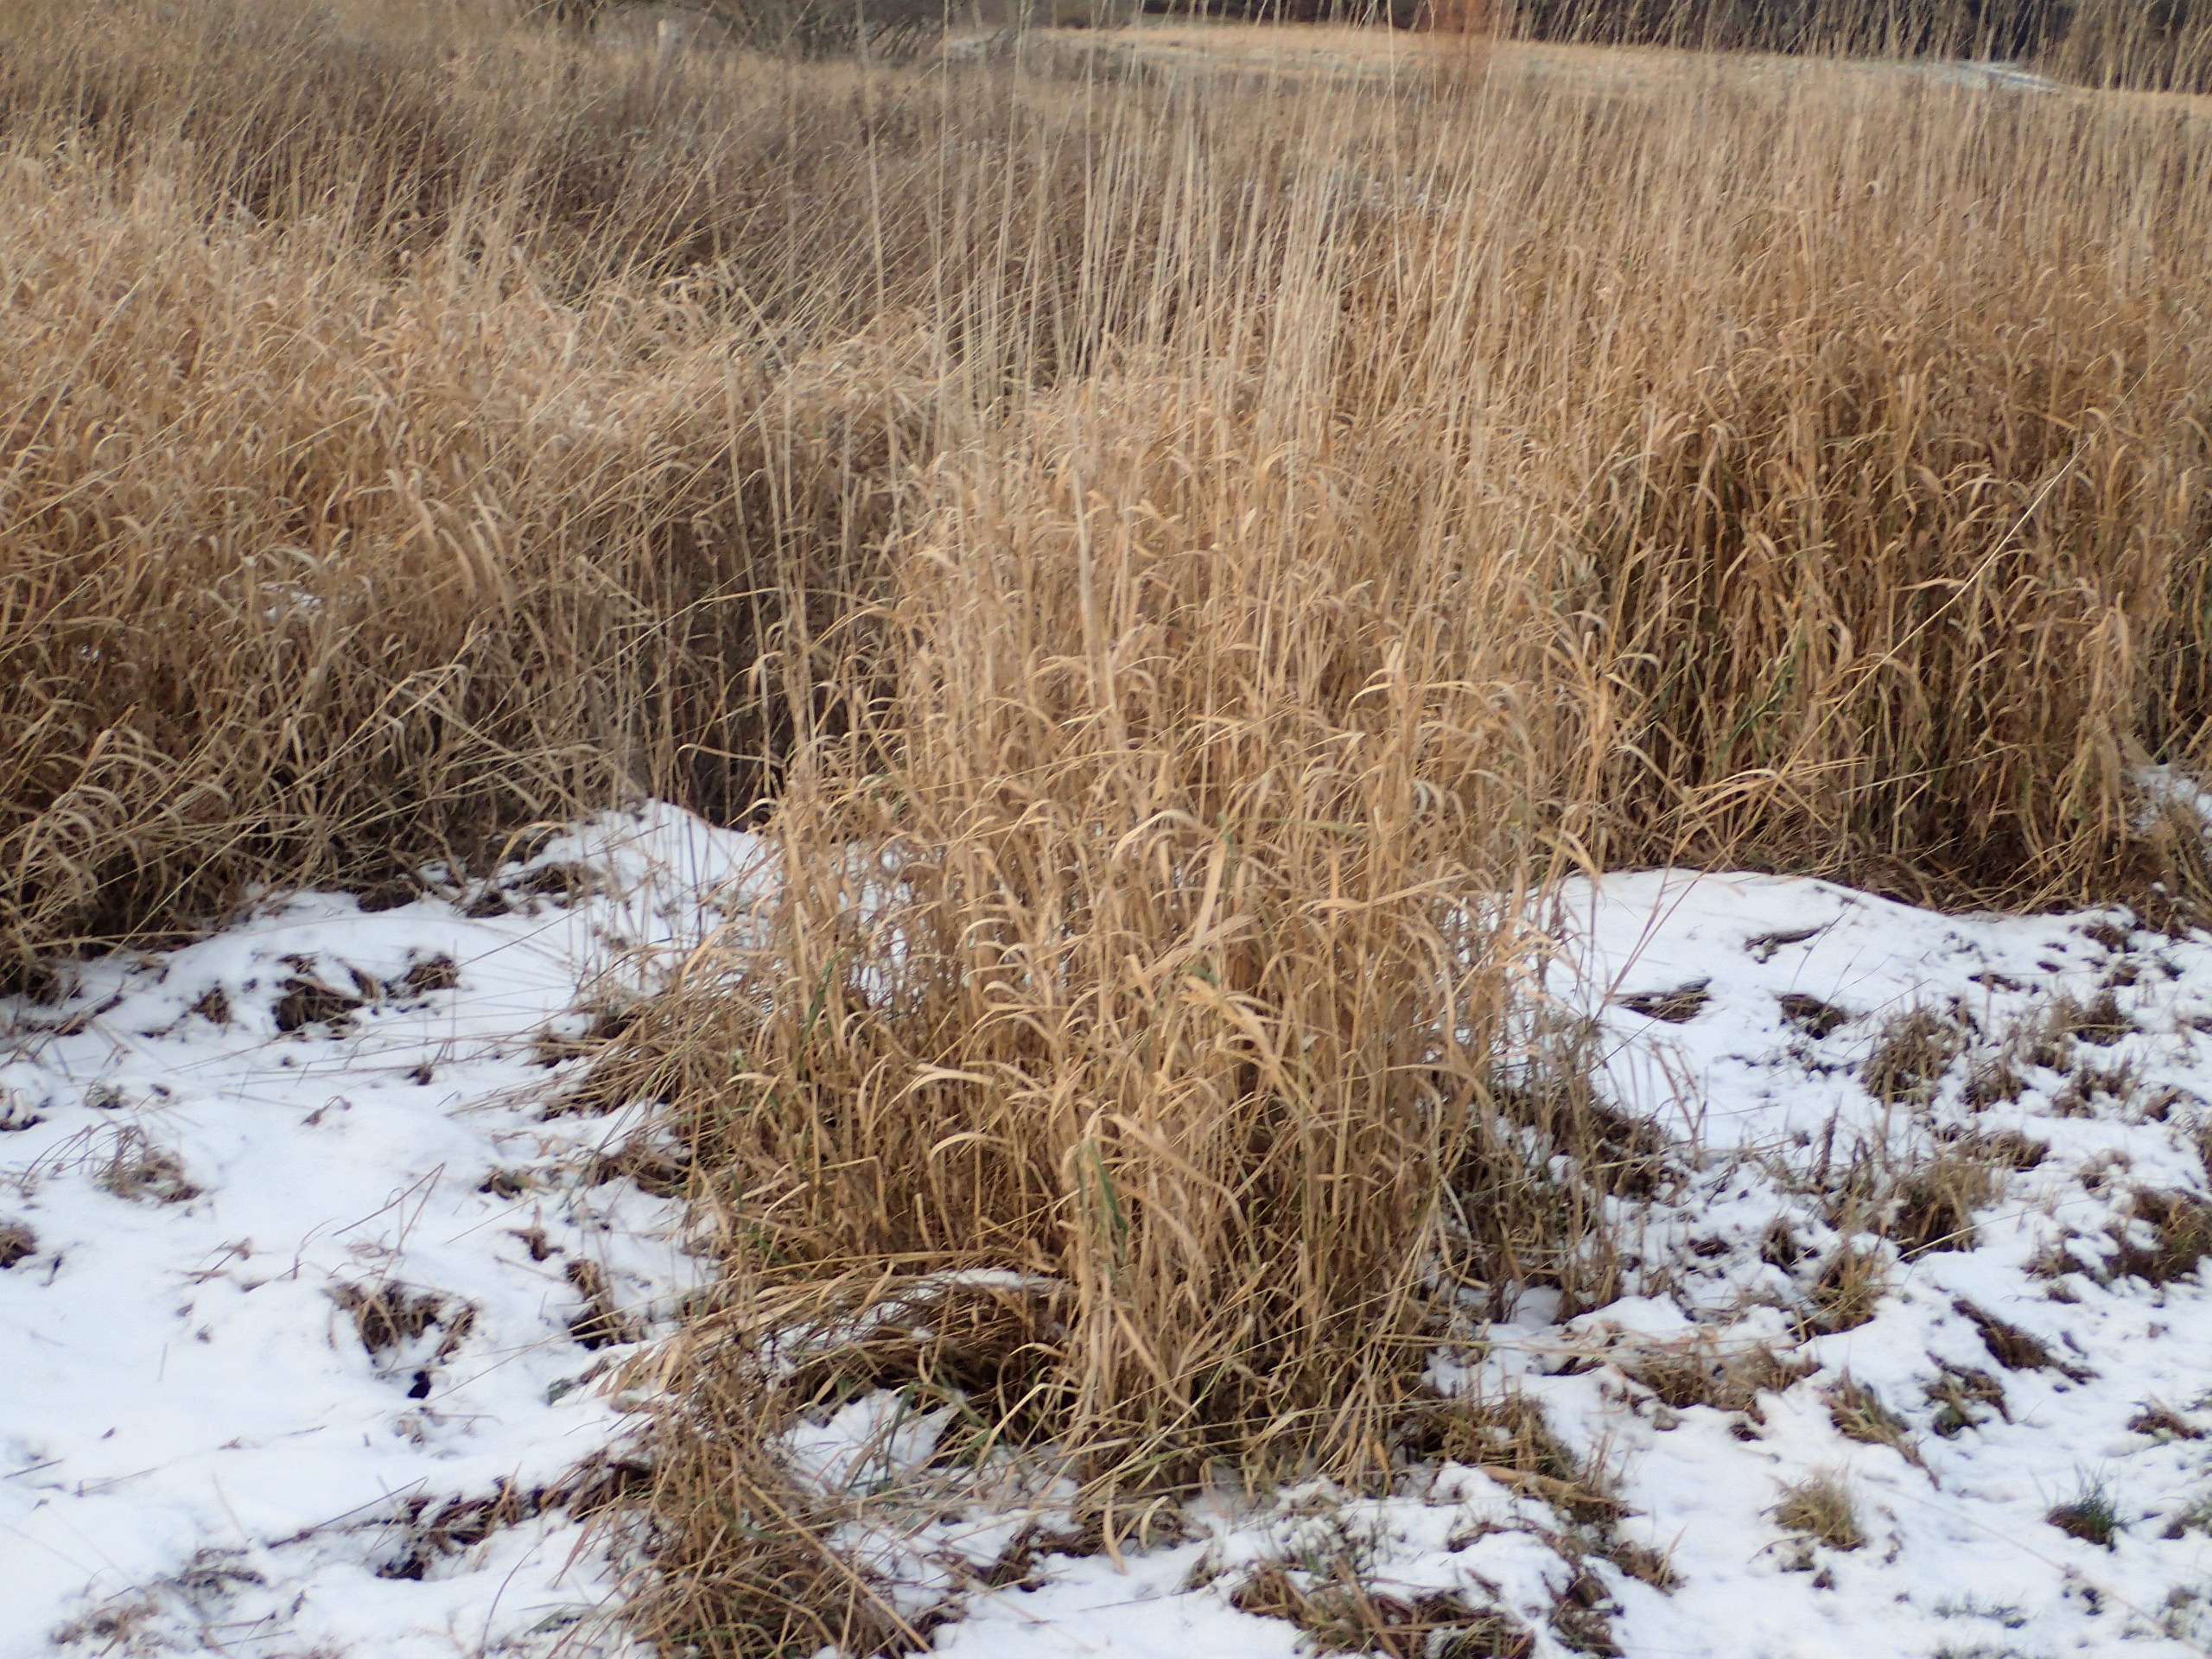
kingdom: Plantae
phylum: Tracheophyta
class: Liliopsida
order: Poales
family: Poaceae
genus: Phalaris
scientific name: Phalaris arundinacea
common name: Rørgræs
